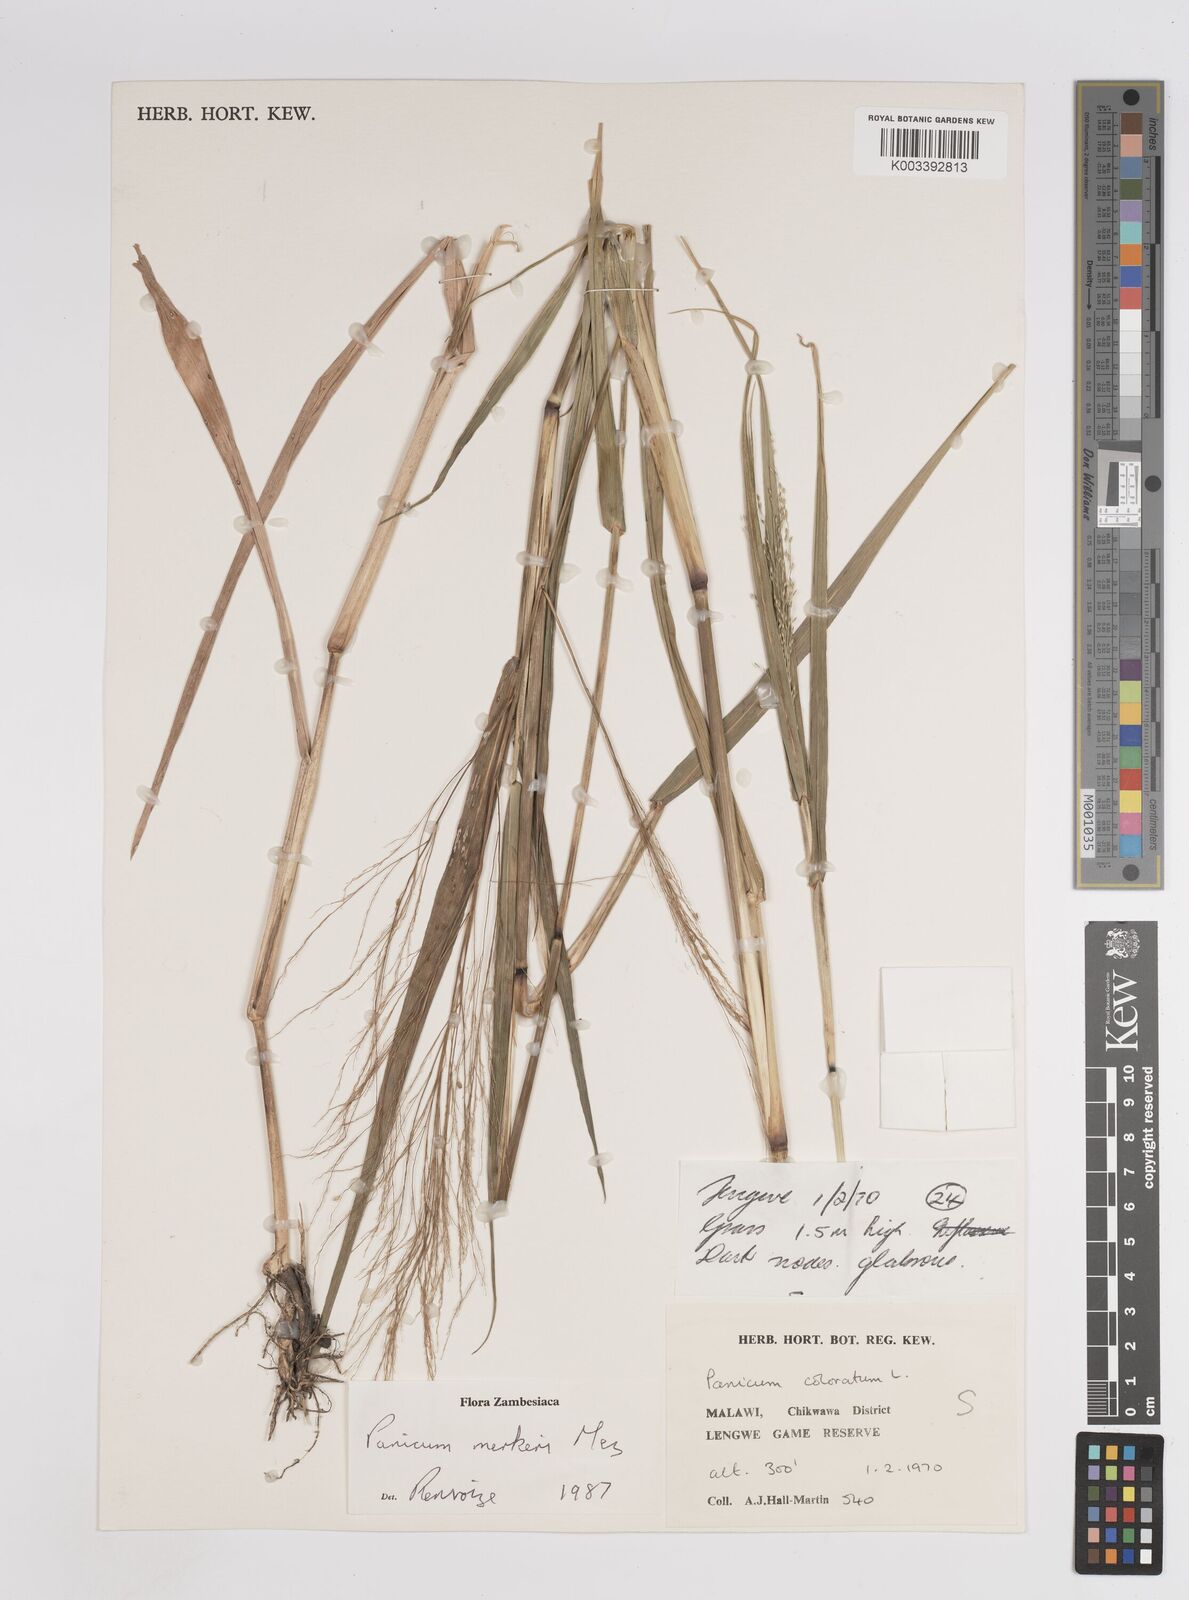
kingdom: Plantae
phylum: Tracheophyta
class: Liliopsida
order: Poales
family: Poaceae
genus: Panicum
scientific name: Panicum merkeri
